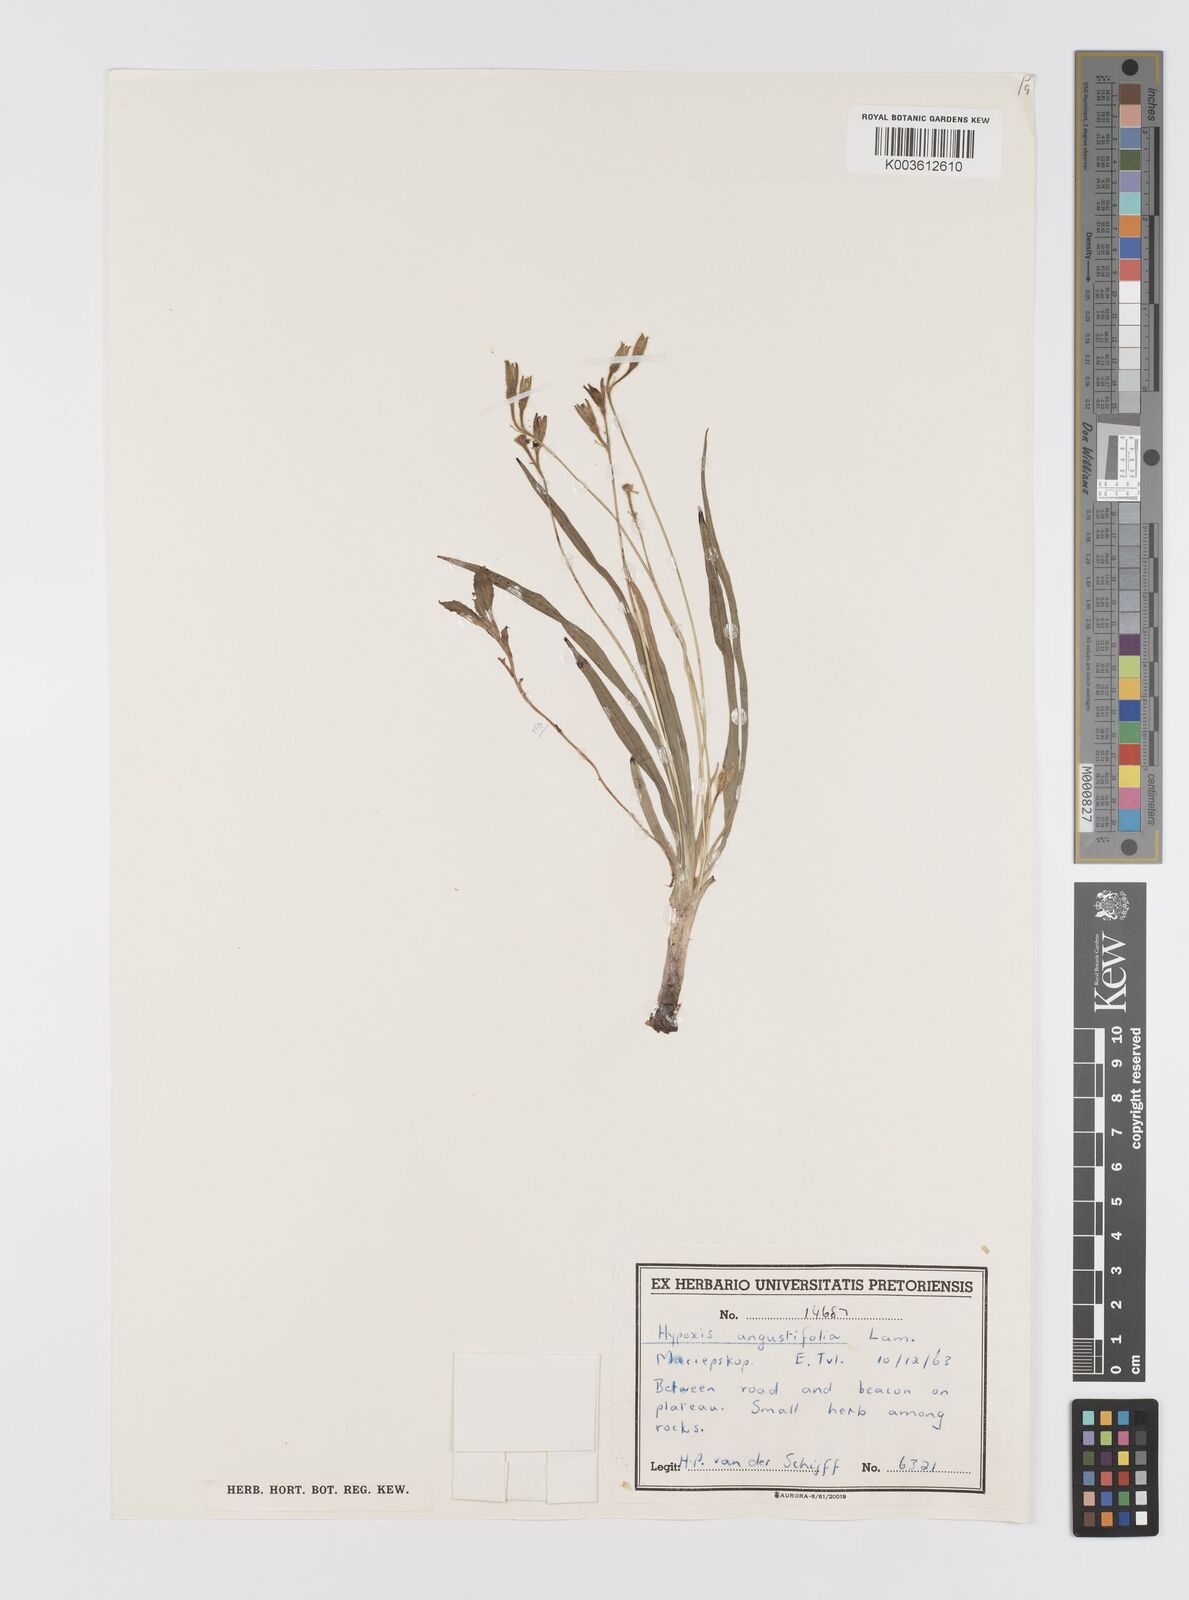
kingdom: Plantae
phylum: Tracheophyta
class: Liliopsida
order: Asparagales
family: Hypoxidaceae
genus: Hypoxis
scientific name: Hypoxis angustifolia
